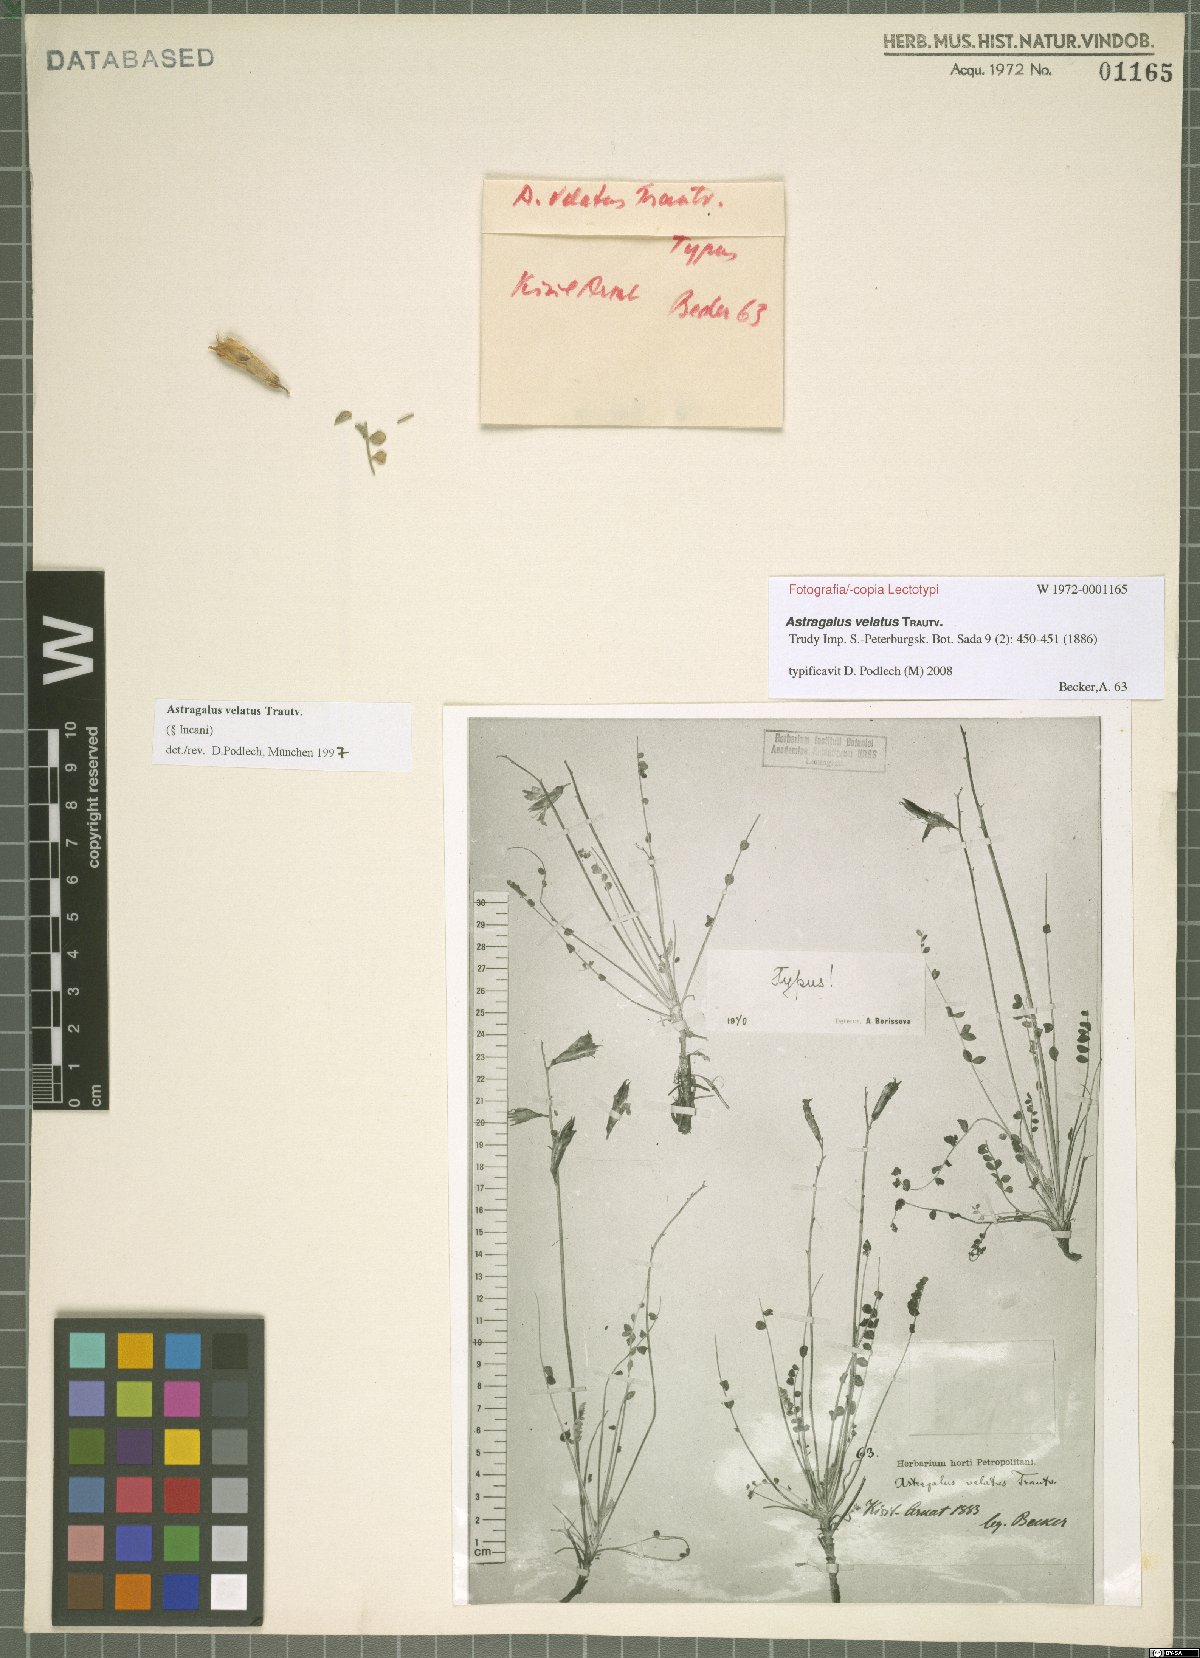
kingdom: Plantae
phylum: Tracheophyta
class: Magnoliopsida
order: Fabales
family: Fabaceae
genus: Astragalus
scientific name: Astragalus velatus
